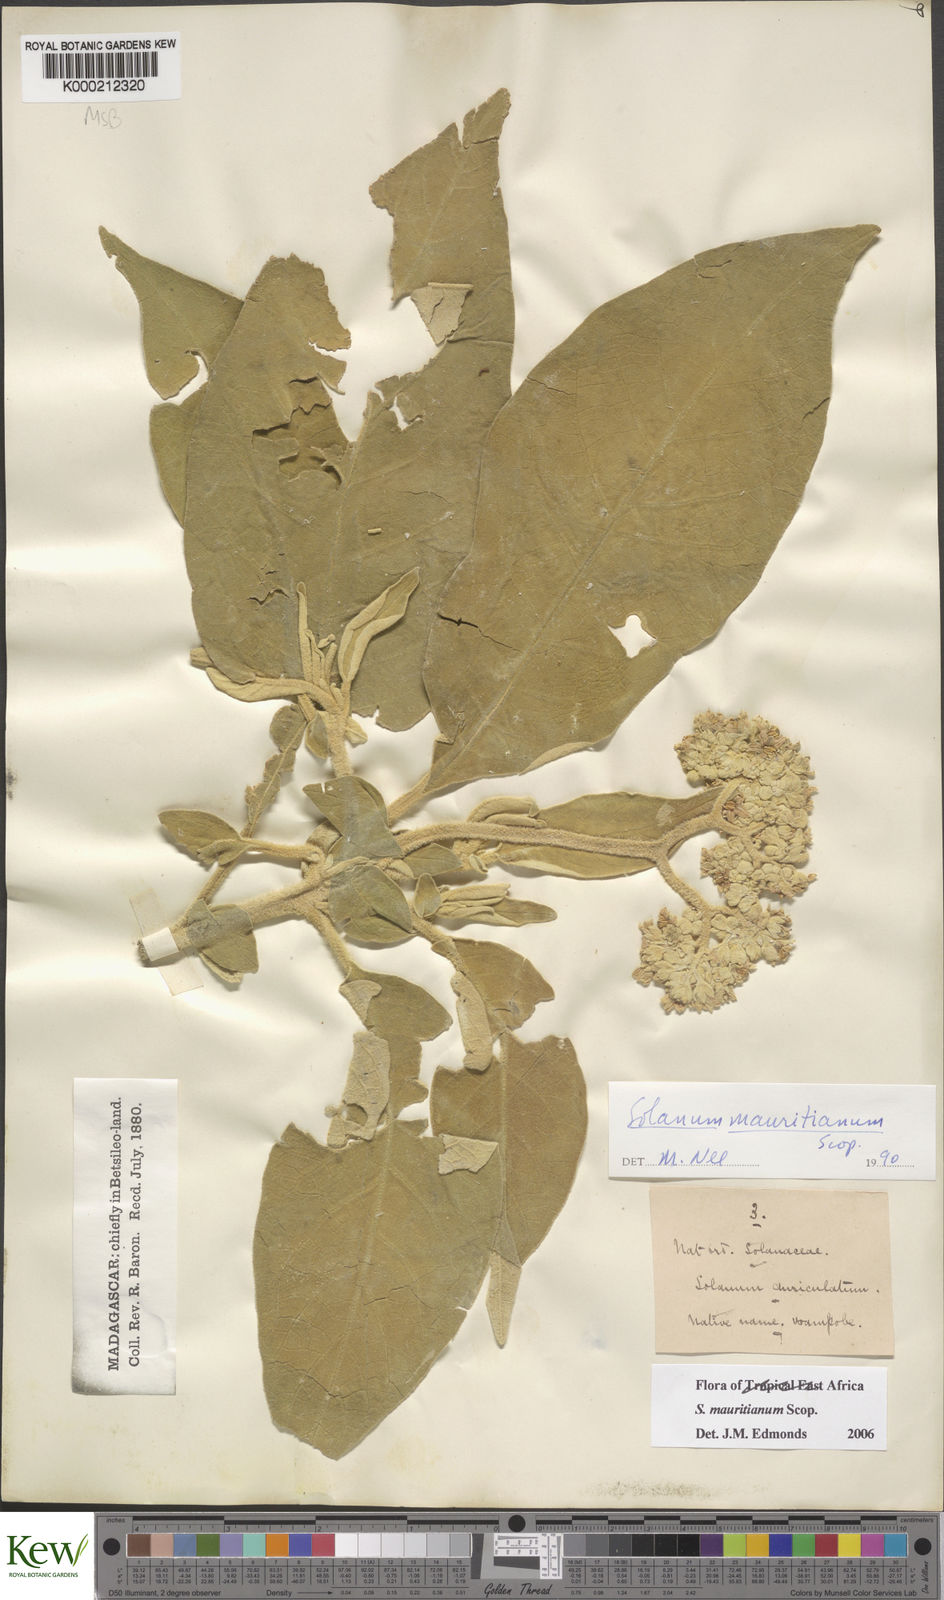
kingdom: Plantae
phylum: Tracheophyta
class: Magnoliopsida
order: Solanales
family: Solanaceae
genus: Solanum
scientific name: Solanum mauritianum
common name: Earleaf nightshade
